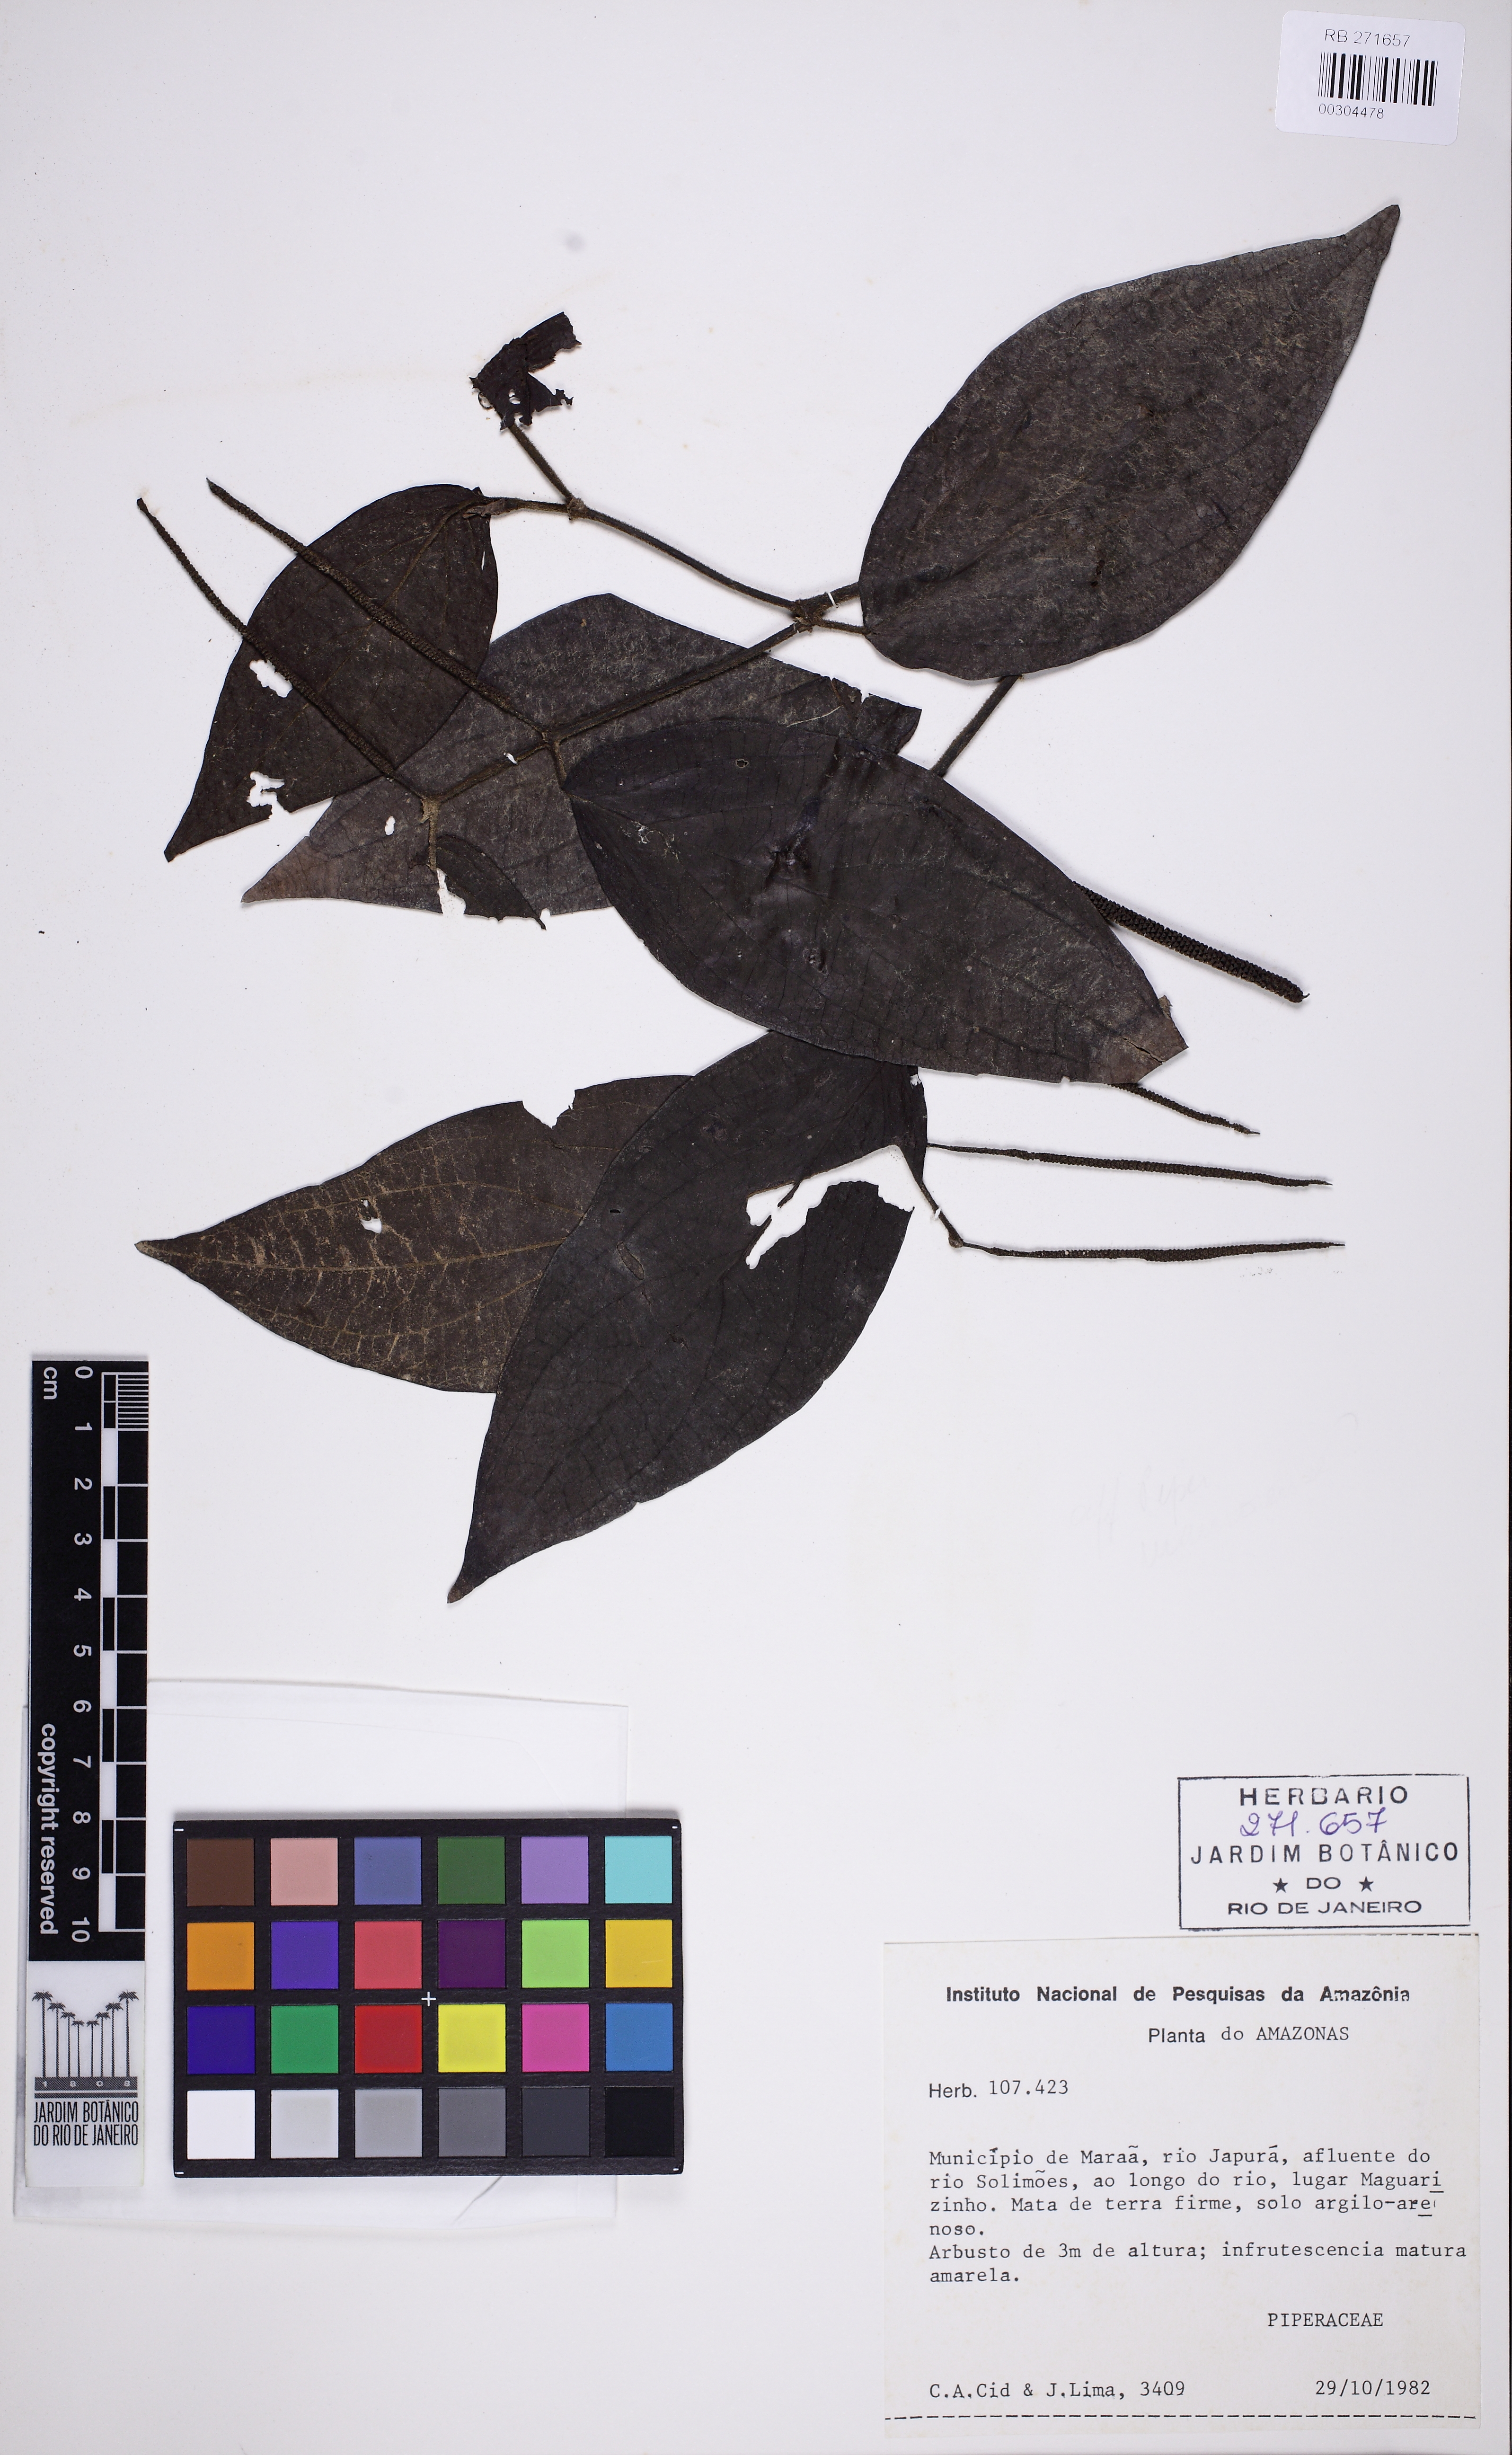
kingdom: Plantae
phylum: Tracheophyta
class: Magnoliopsida
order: Piperales
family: Piperaceae
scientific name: Piperaceae
